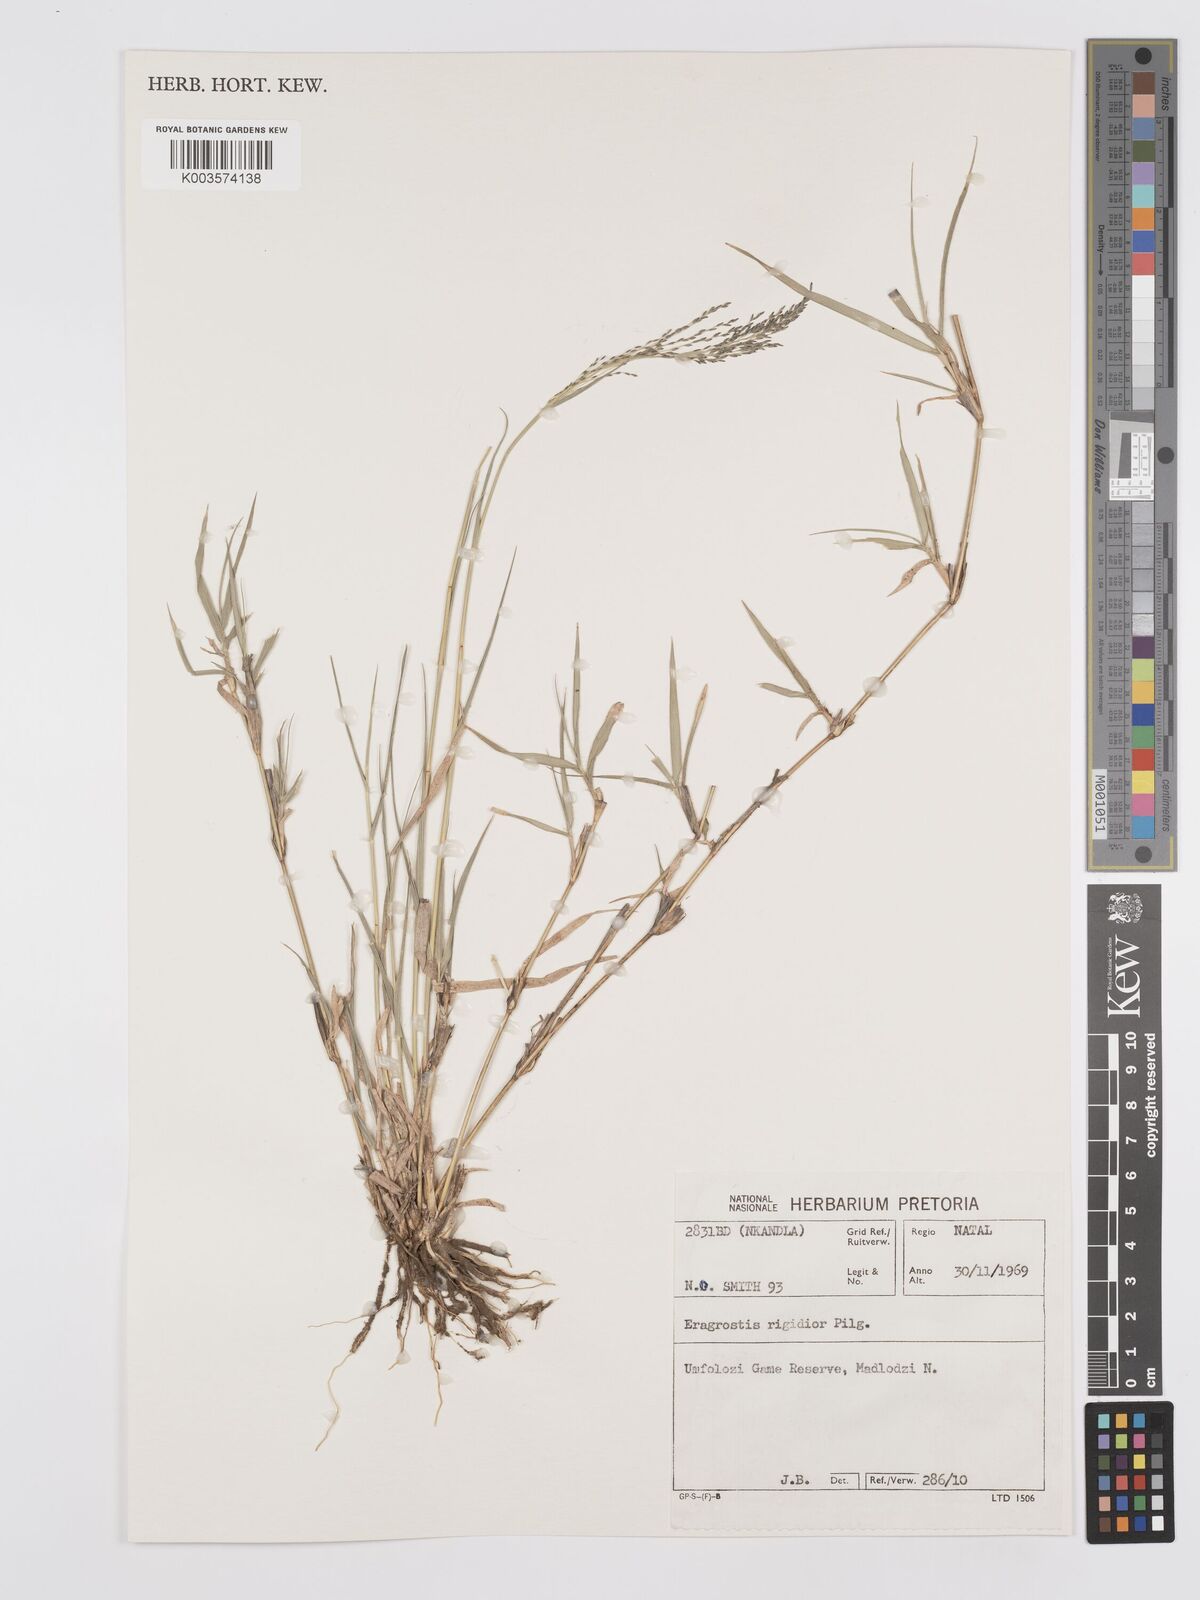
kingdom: Plantae
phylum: Tracheophyta
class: Liliopsida
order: Poales
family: Poaceae
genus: Eragrostis
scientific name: Eragrostis cylindriflora
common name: Cylinderflower lovegrass
